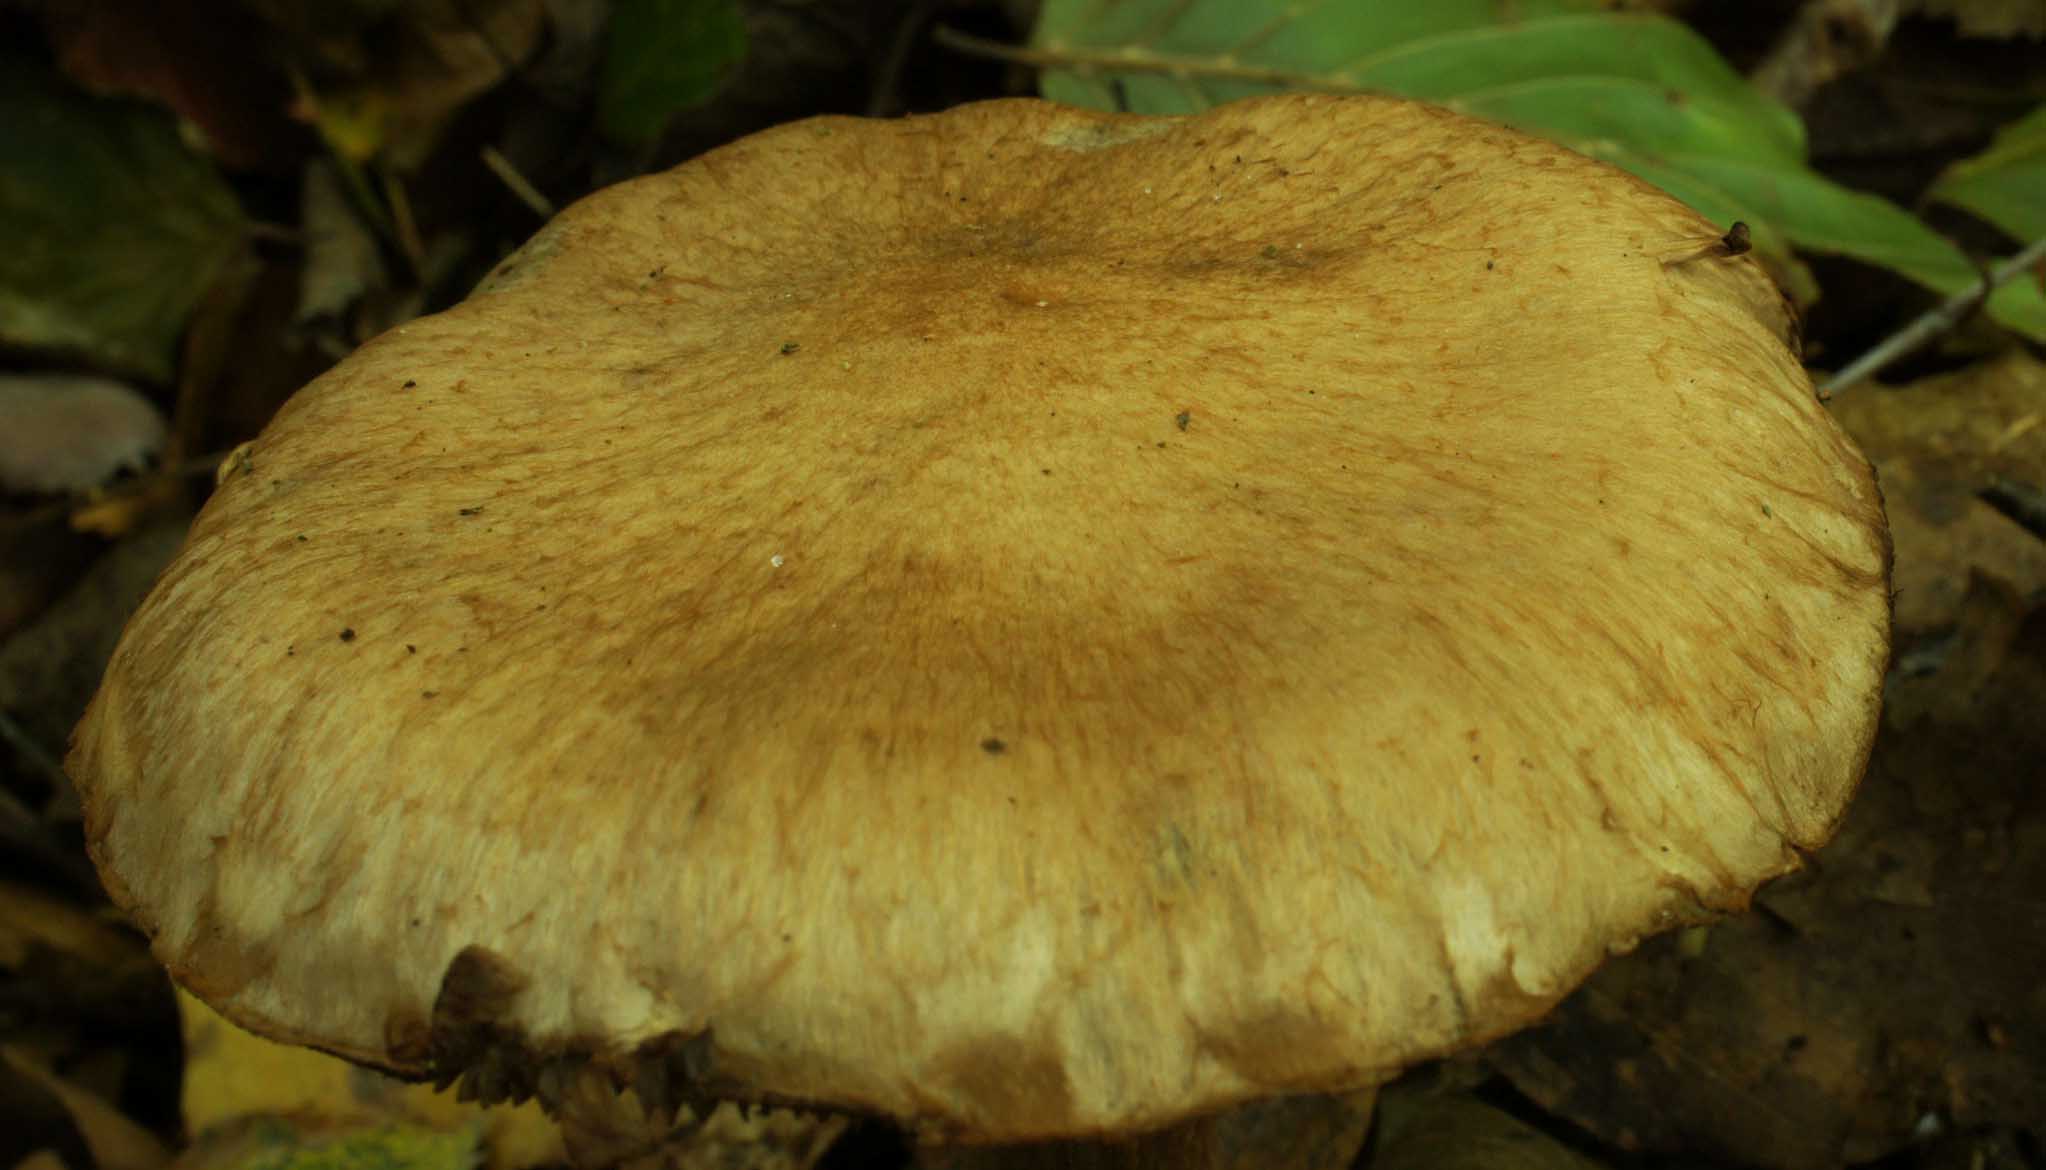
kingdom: Fungi
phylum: Basidiomycota
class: Agaricomycetes
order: Agaricales
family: Cortinariaceae
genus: Cortinarius
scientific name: Cortinarius lucorum
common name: aspe-slørhat
